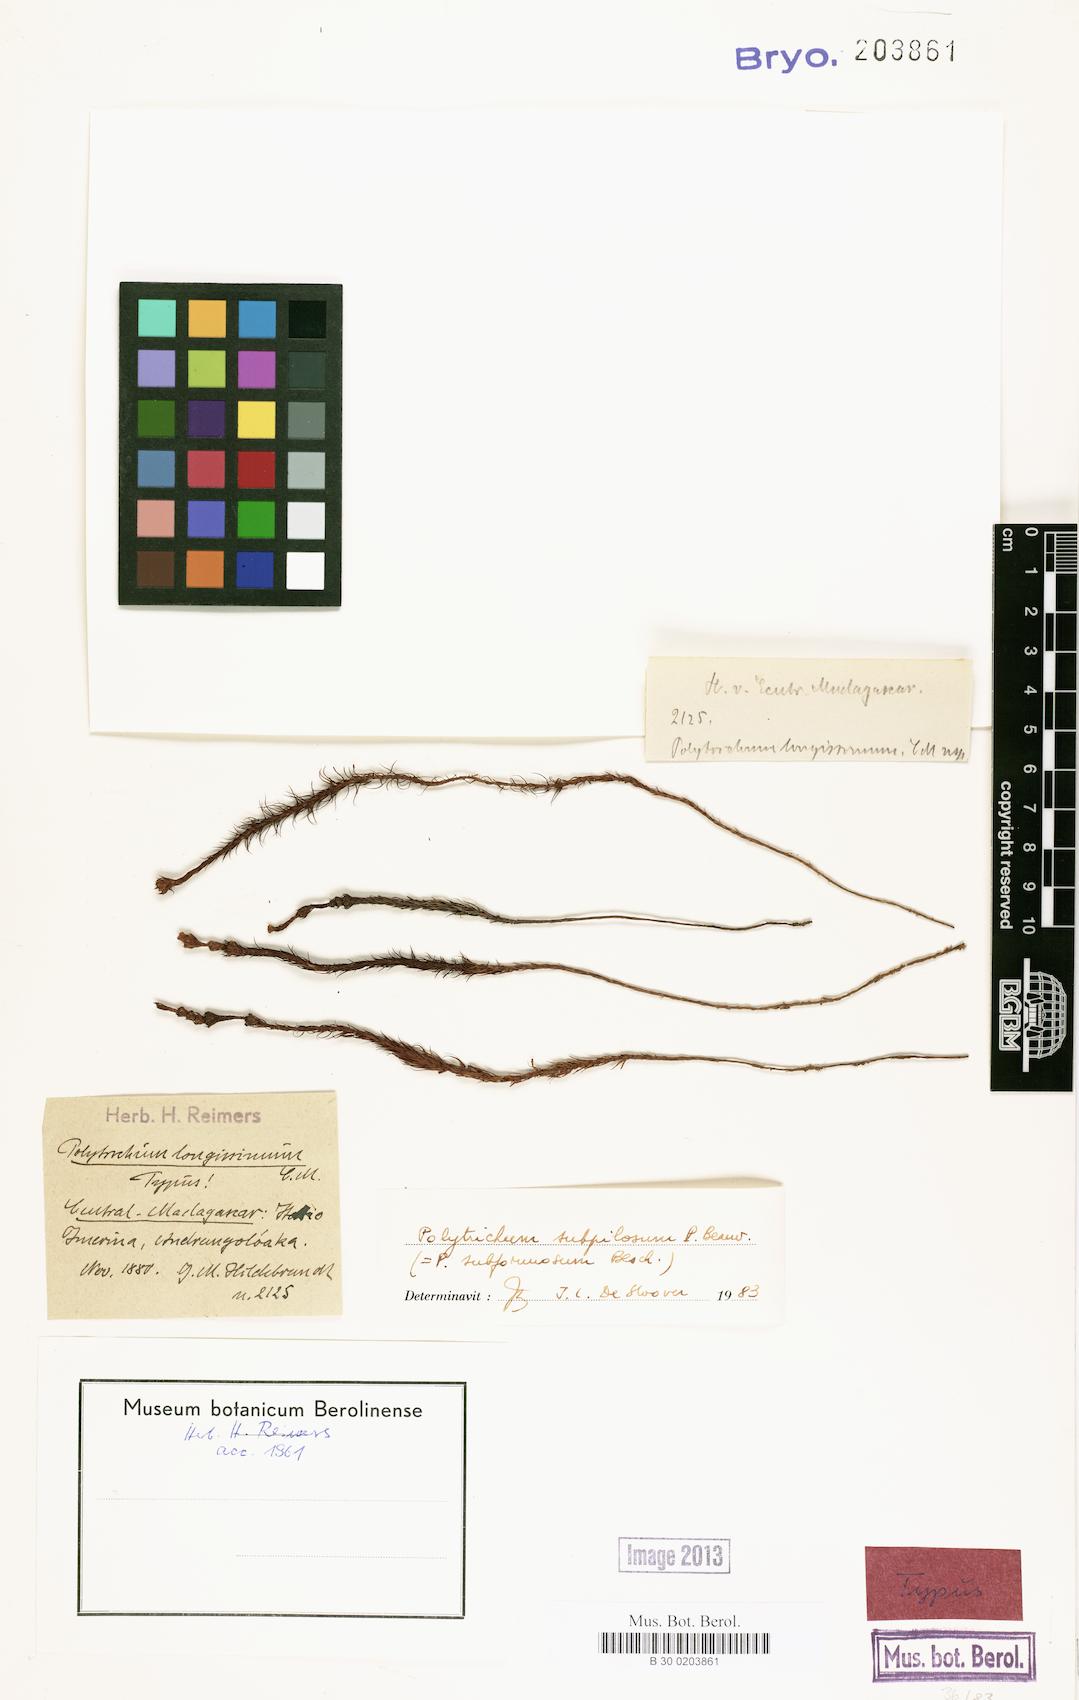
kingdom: Plantae
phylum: Bryophyta
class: Polytrichopsida
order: Polytrichales
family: Polytrichaceae
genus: Polytrichum
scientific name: Polytrichum subpilosum
